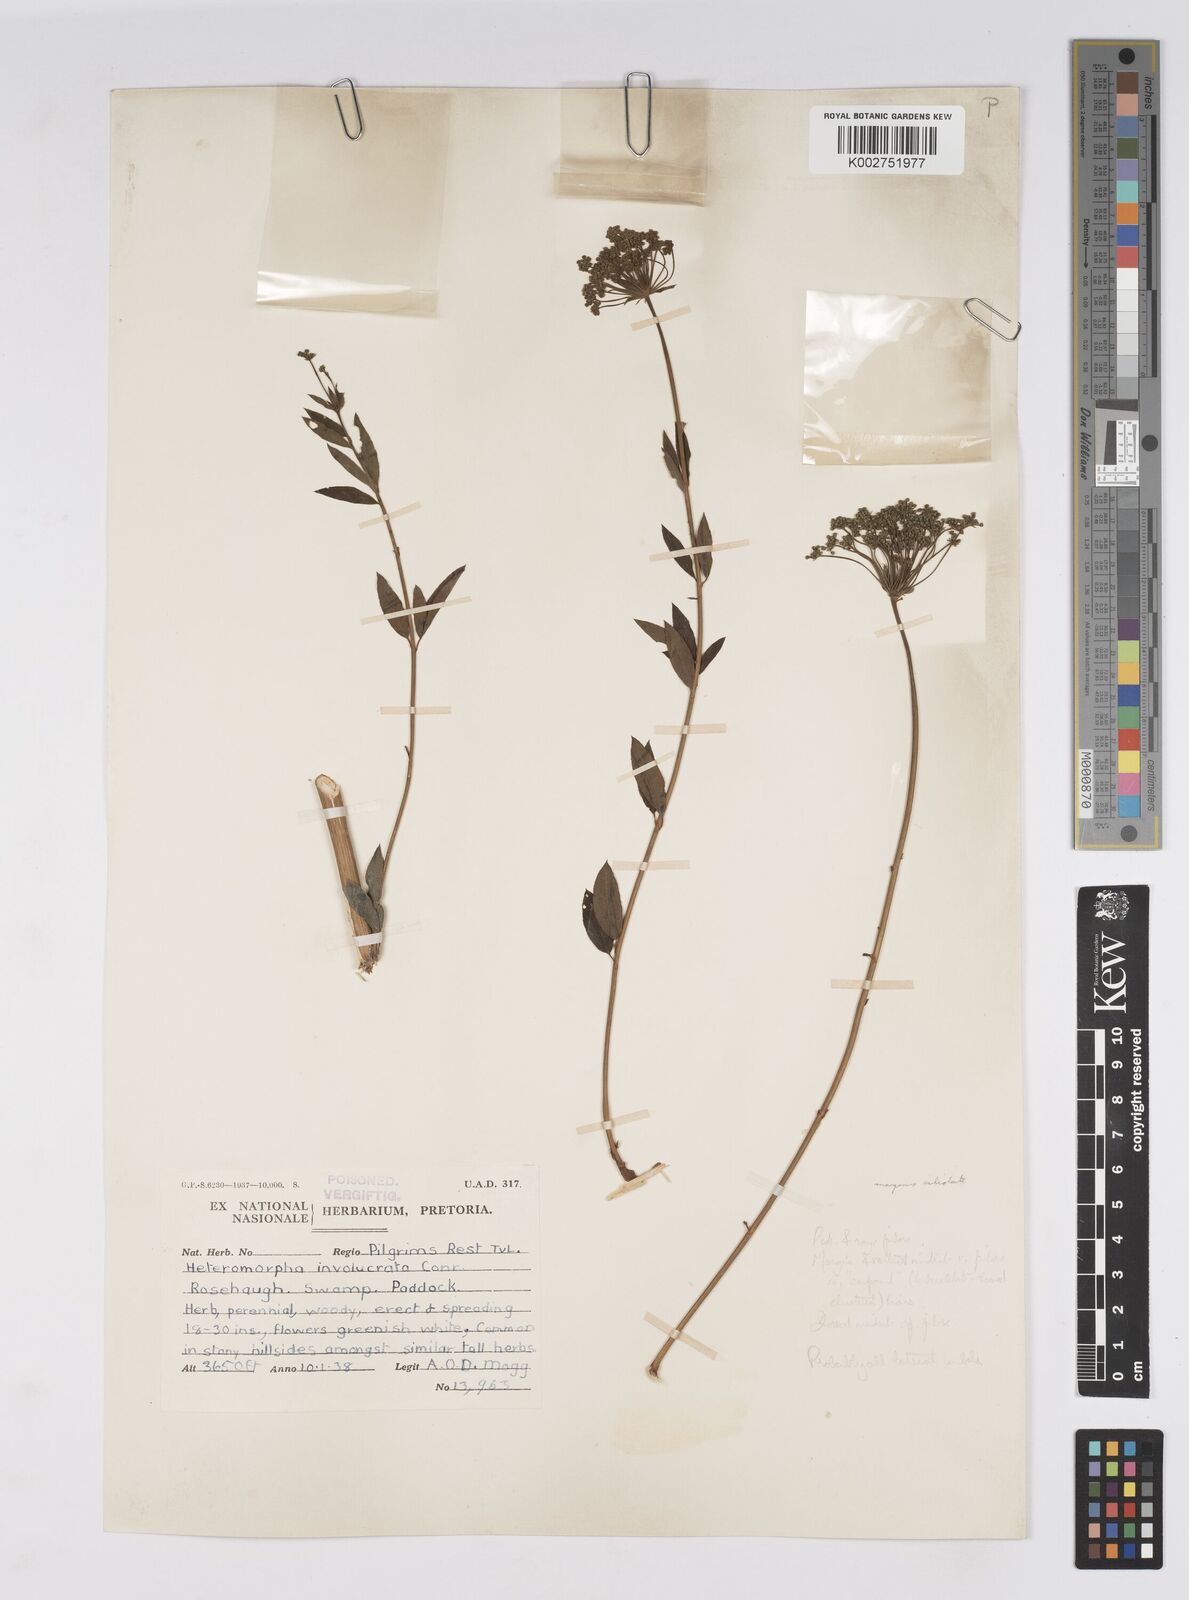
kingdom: Plantae
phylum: Tracheophyta
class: Magnoliopsida
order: Apiales
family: Apiaceae
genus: Heteromorpha
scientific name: Heteromorpha involucrata
